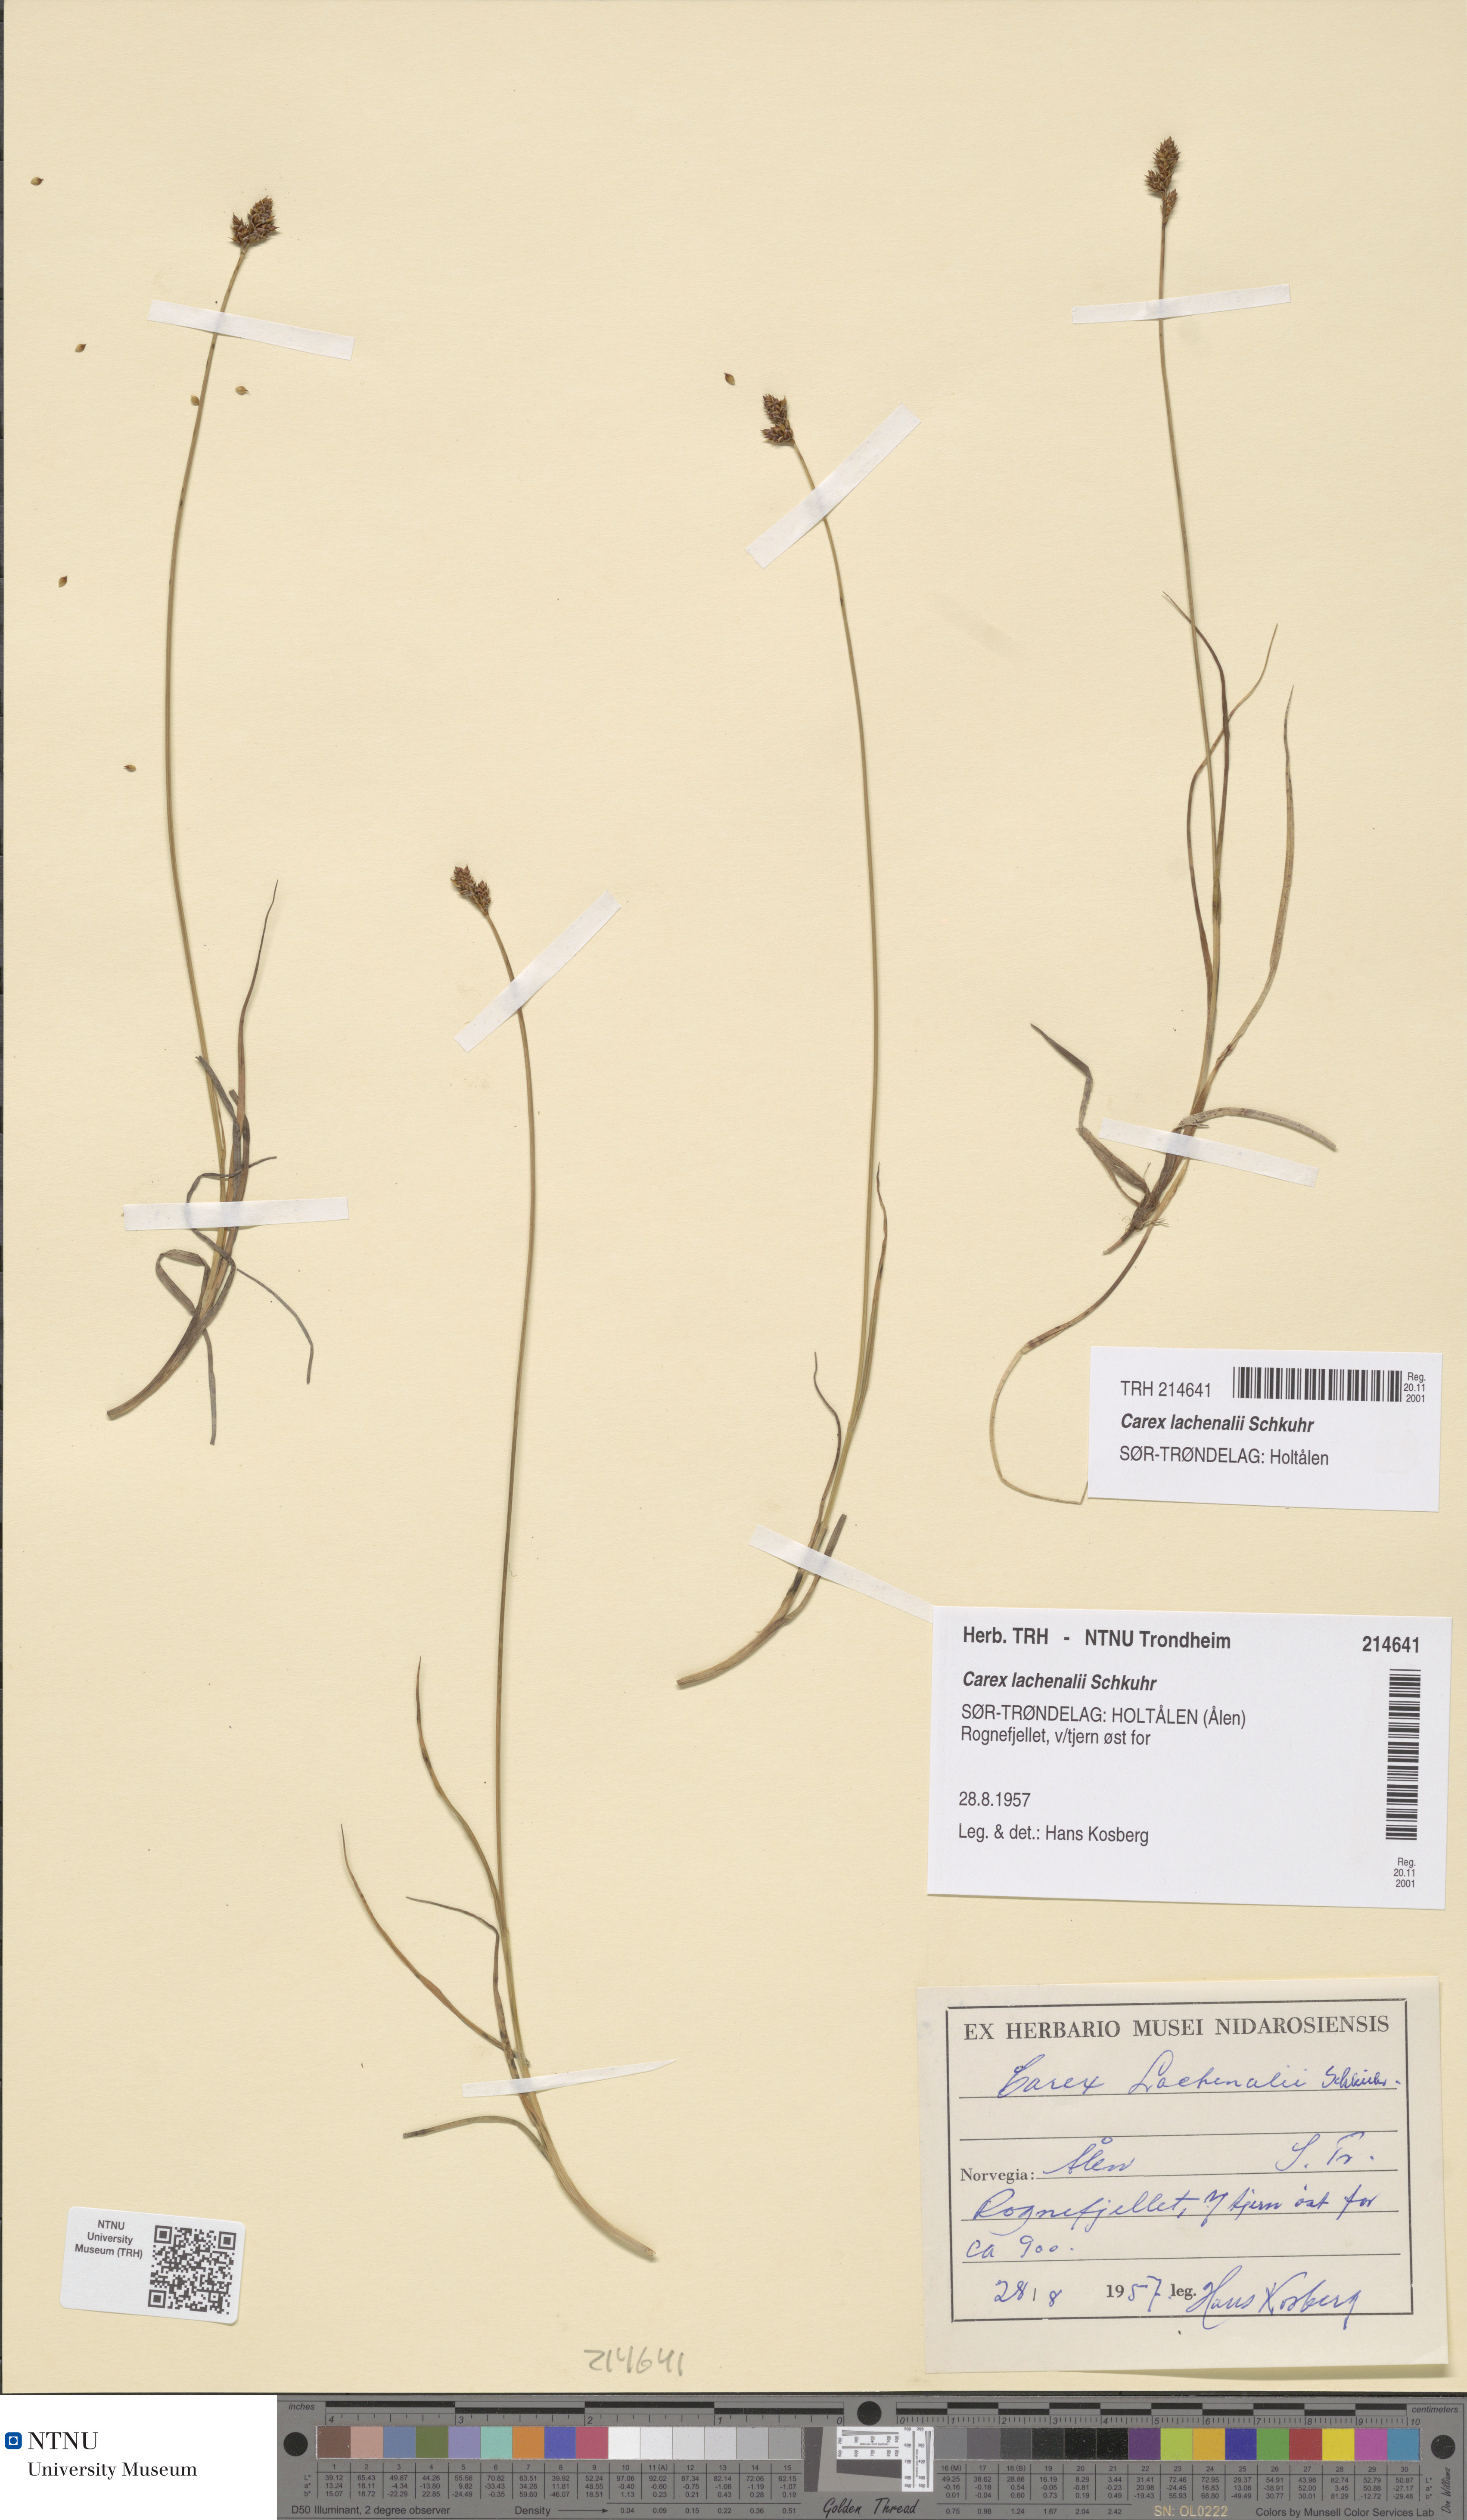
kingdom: Plantae
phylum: Tracheophyta
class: Liliopsida
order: Poales
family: Cyperaceae
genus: Carex
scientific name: Carex lachenalii
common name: Hare's-foot sedge
